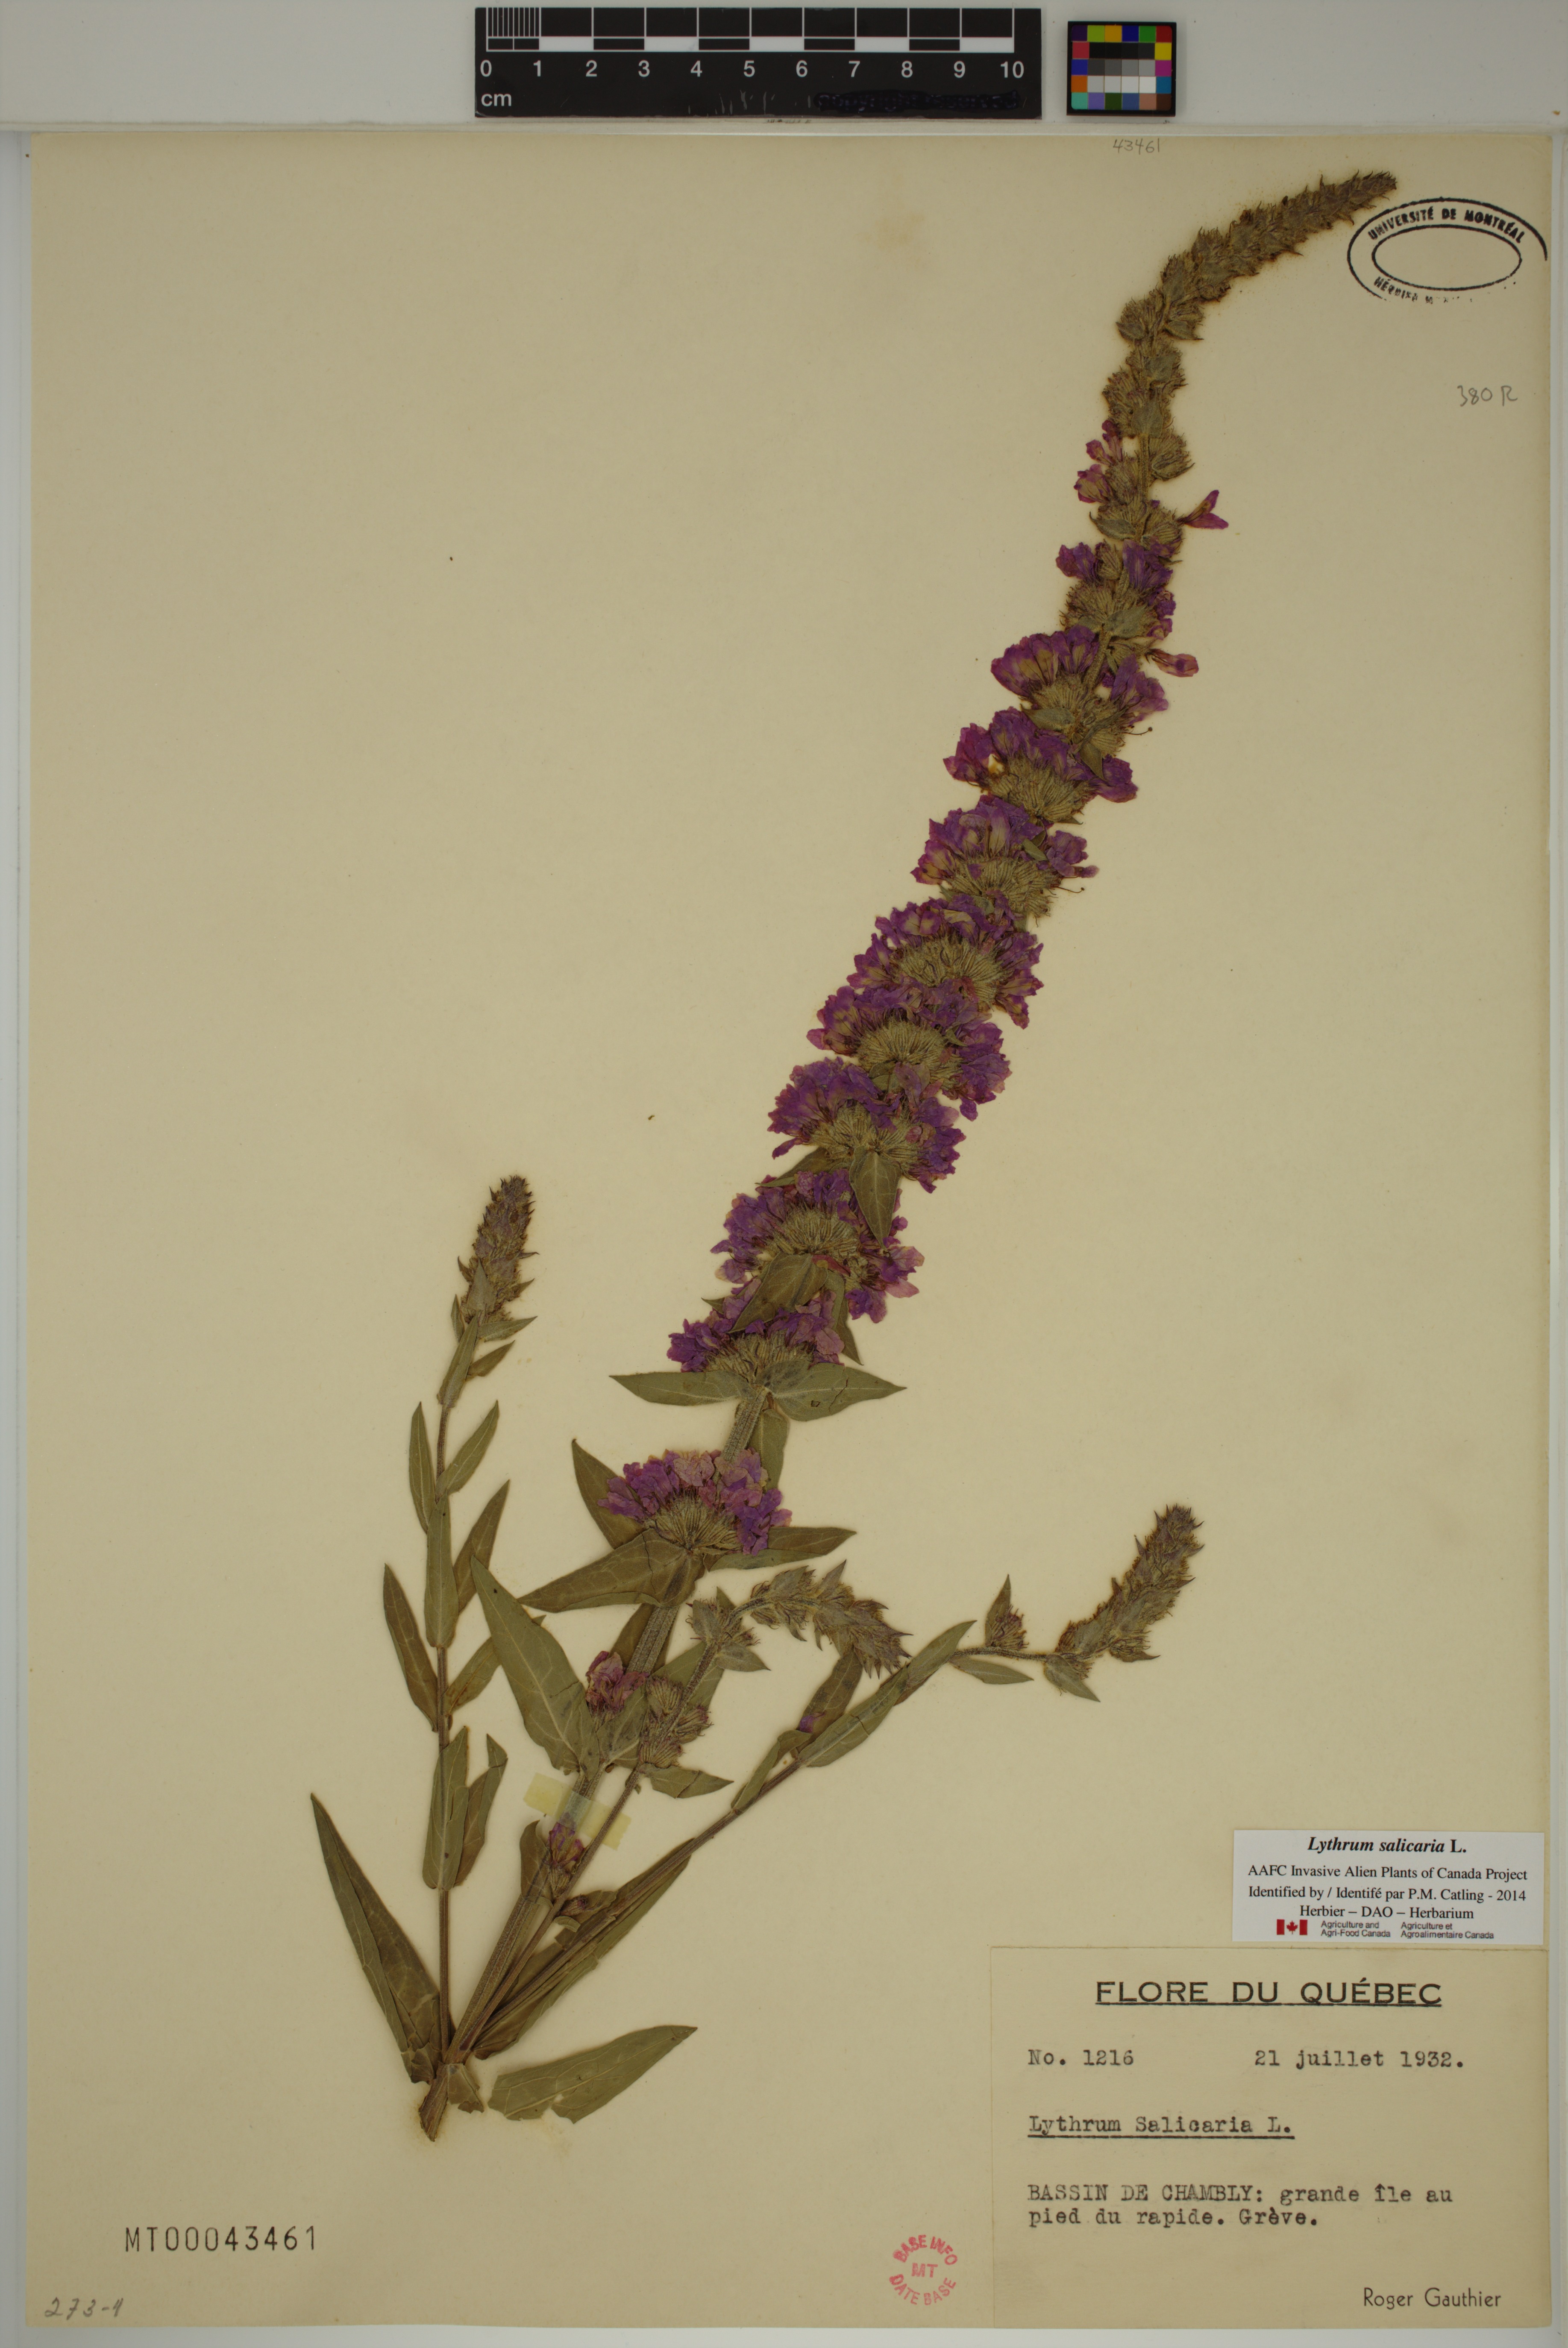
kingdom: Plantae
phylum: Tracheophyta
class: Magnoliopsida
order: Myrtales
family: Lythraceae
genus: Lythrum
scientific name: Lythrum salicaria
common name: Purple loosestrife
